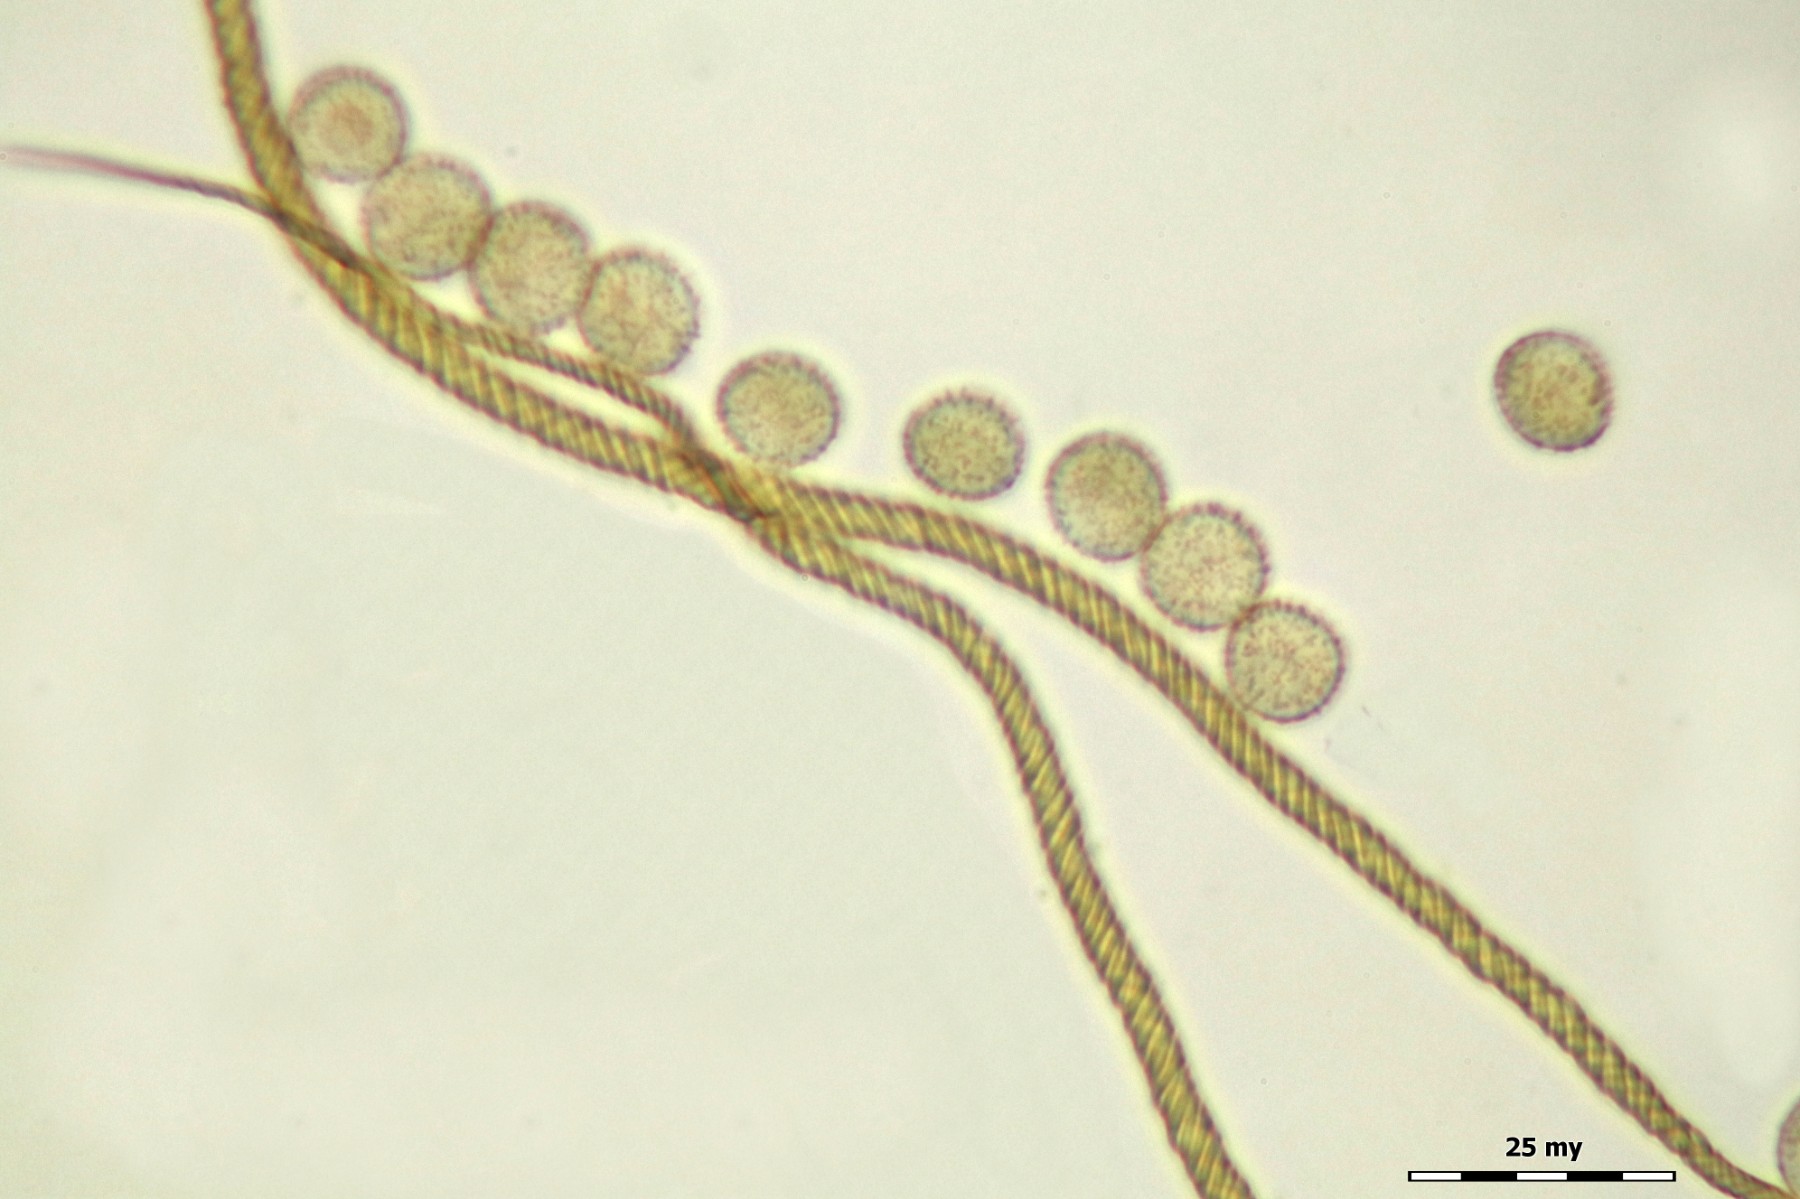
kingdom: Protozoa
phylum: Mycetozoa
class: Myxomycetes
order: Trichiales
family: Trichiaceae
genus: Trichia
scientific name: Trichia crateriformis
